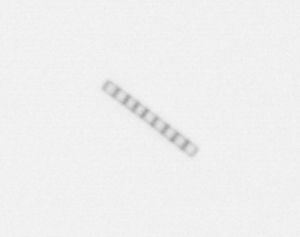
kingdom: Chromista
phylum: Ochrophyta
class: Bacillariophyceae
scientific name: Bacillariophyceae
